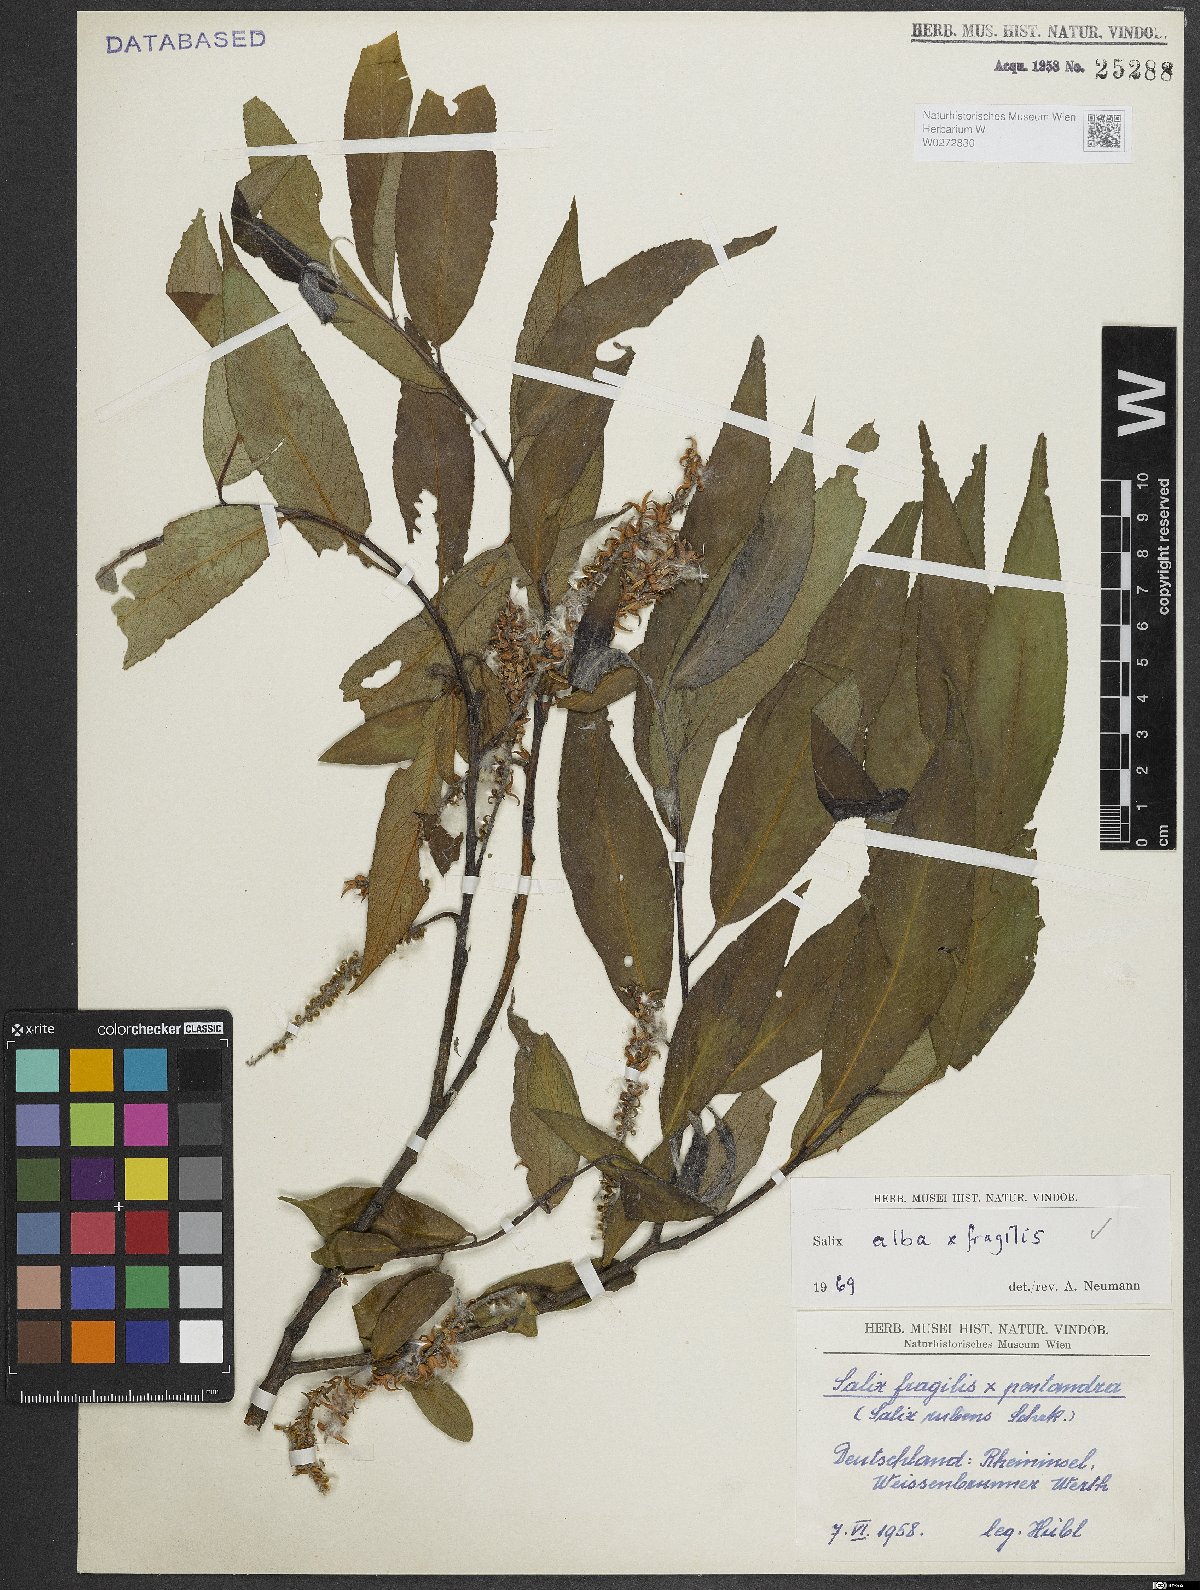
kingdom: Plantae
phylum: Tracheophyta
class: Magnoliopsida
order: Malpighiales
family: Salicaceae
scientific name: Salicaceae
